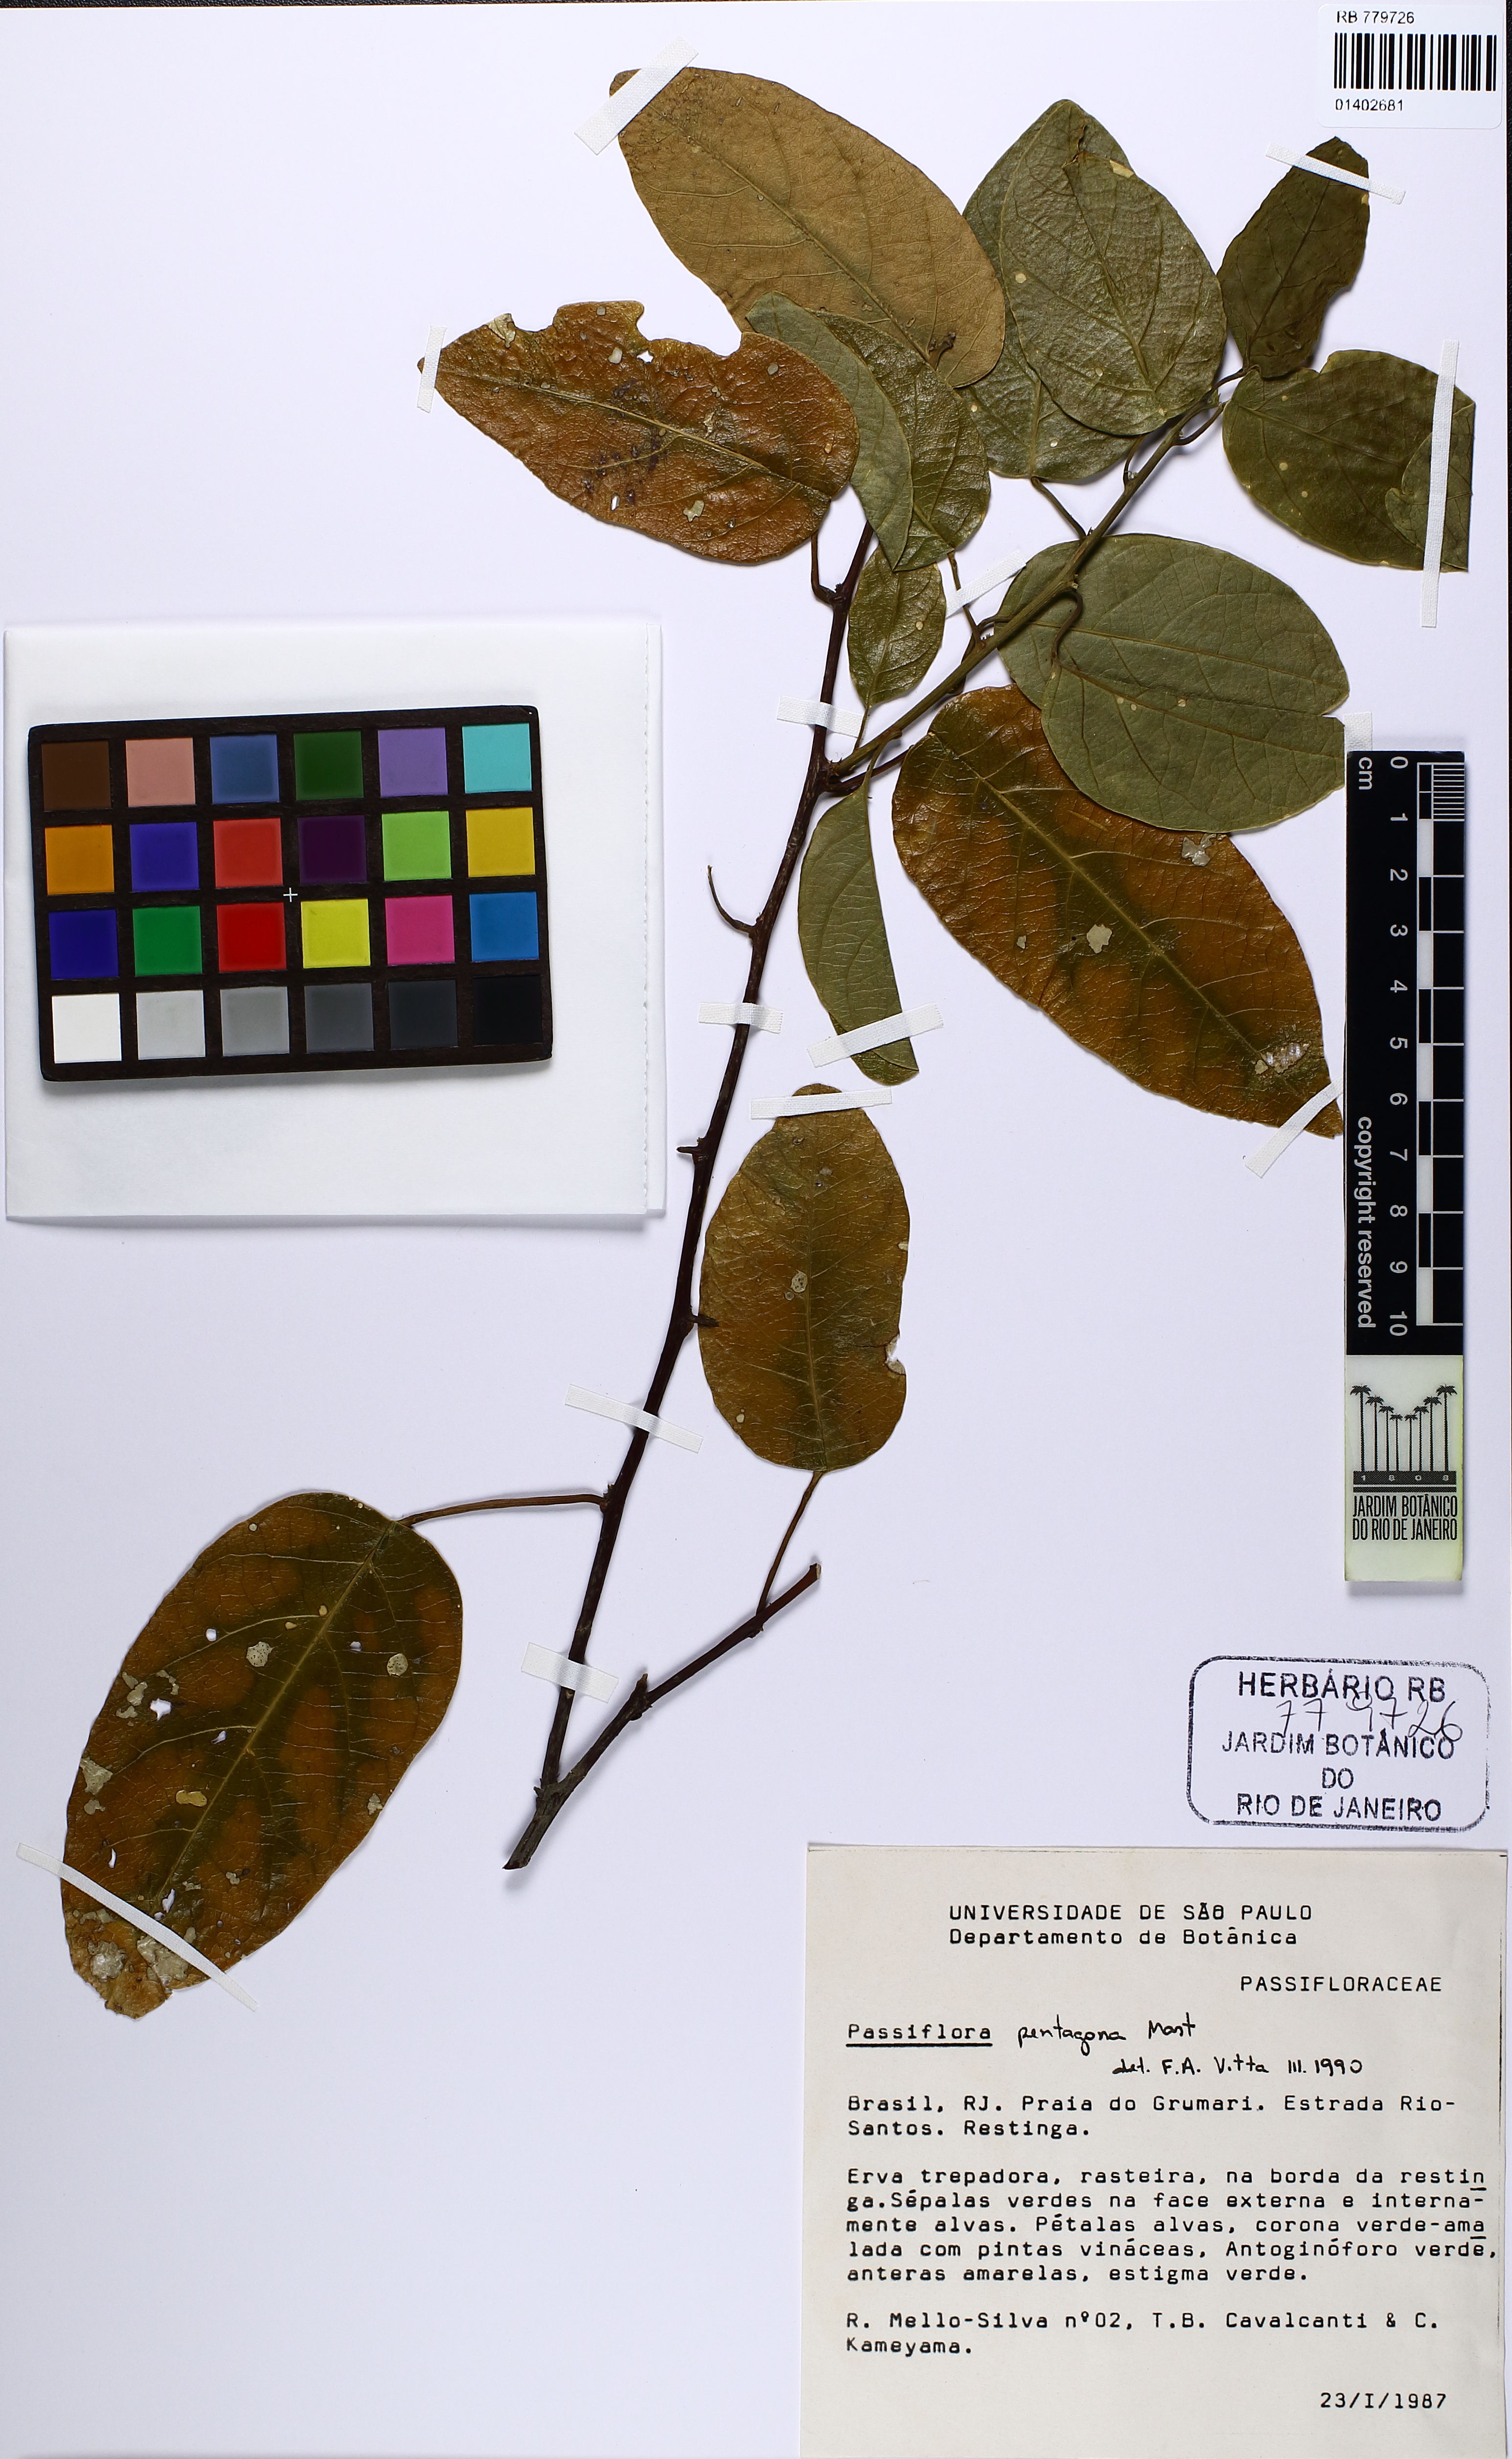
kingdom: Plantae
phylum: Tracheophyta
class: Magnoliopsida
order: Malpighiales
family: Passifloraceae
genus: Passiflora
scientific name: Passiflora pentagona
